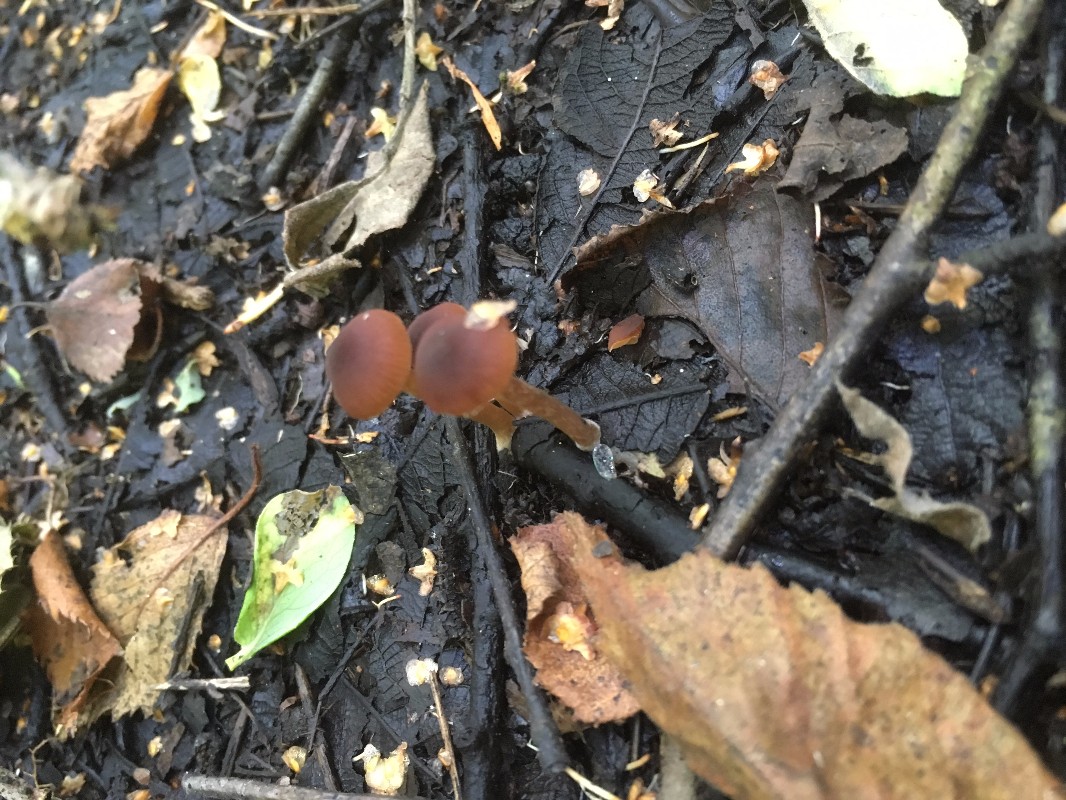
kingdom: Fungi
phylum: Basidiomycota
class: Agaricomycetes
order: Agaricales
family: Hymenogastraceae
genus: Naucoria
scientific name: Naucoria salicis
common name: teglbrun knaphat
